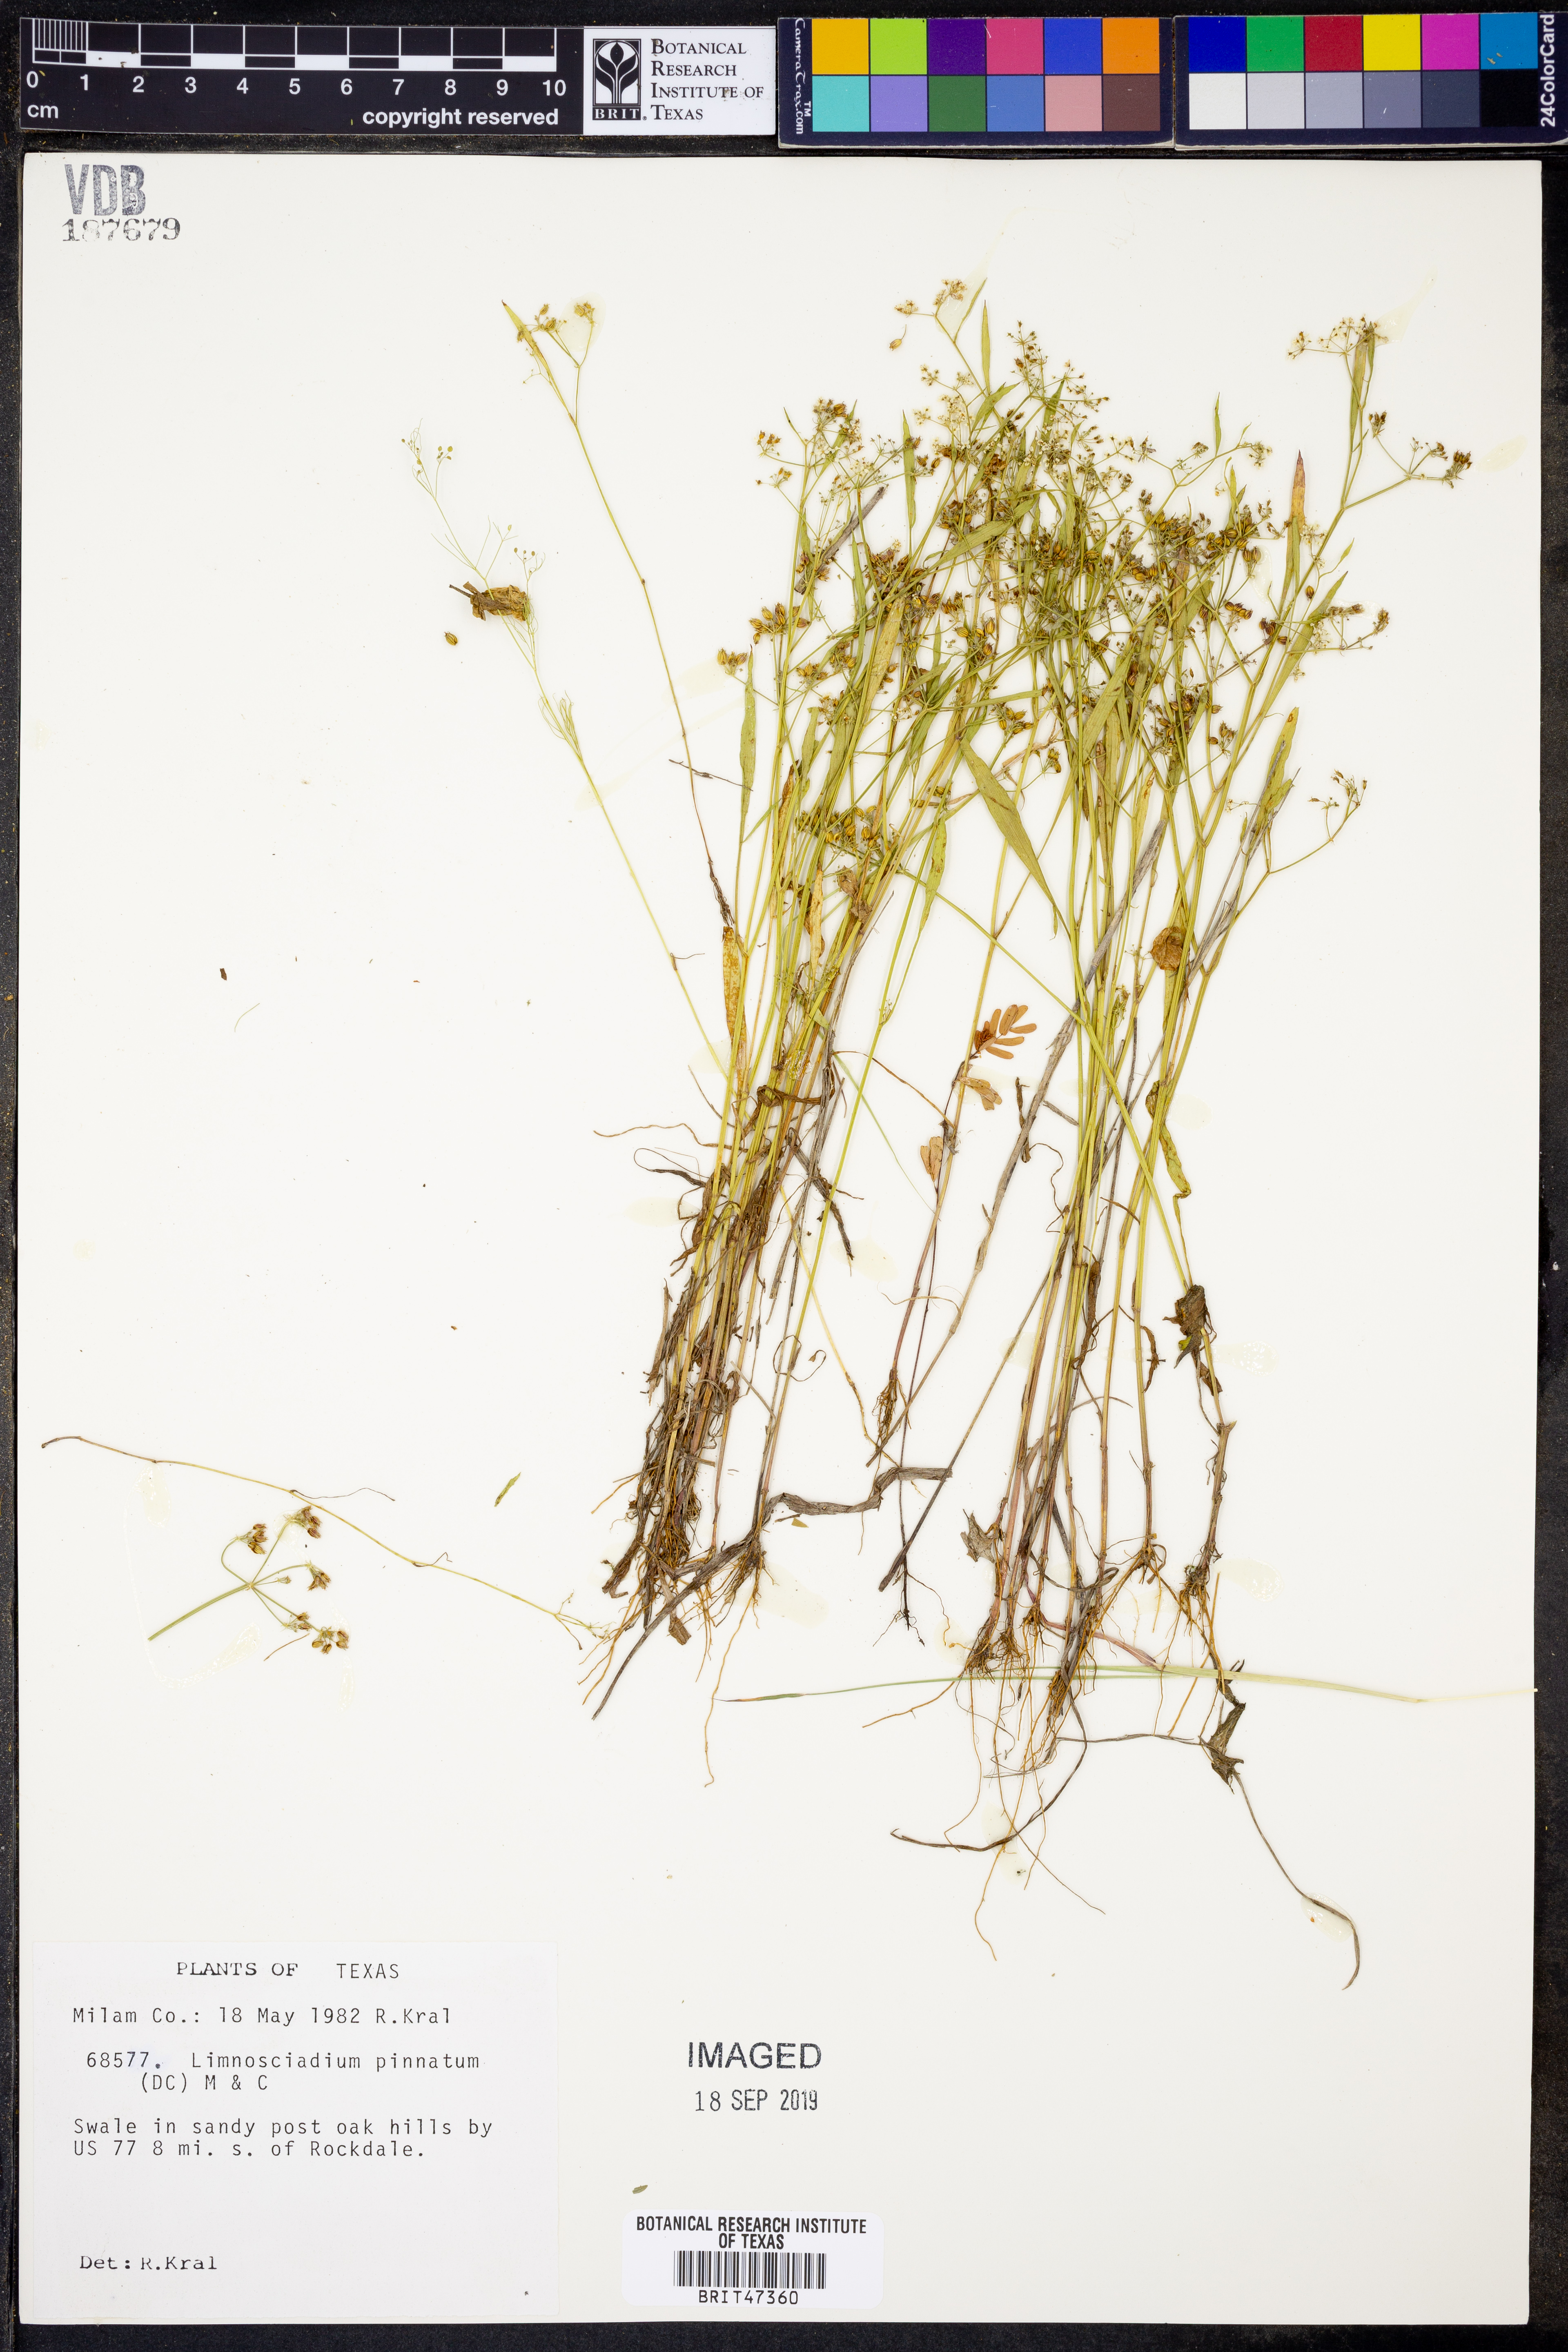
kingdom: Plantae
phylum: Tracheophyta
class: Magnoliopsida
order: Apiales
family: Apiaceae
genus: Limnosciadium
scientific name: Limnosciadium pinnatum
